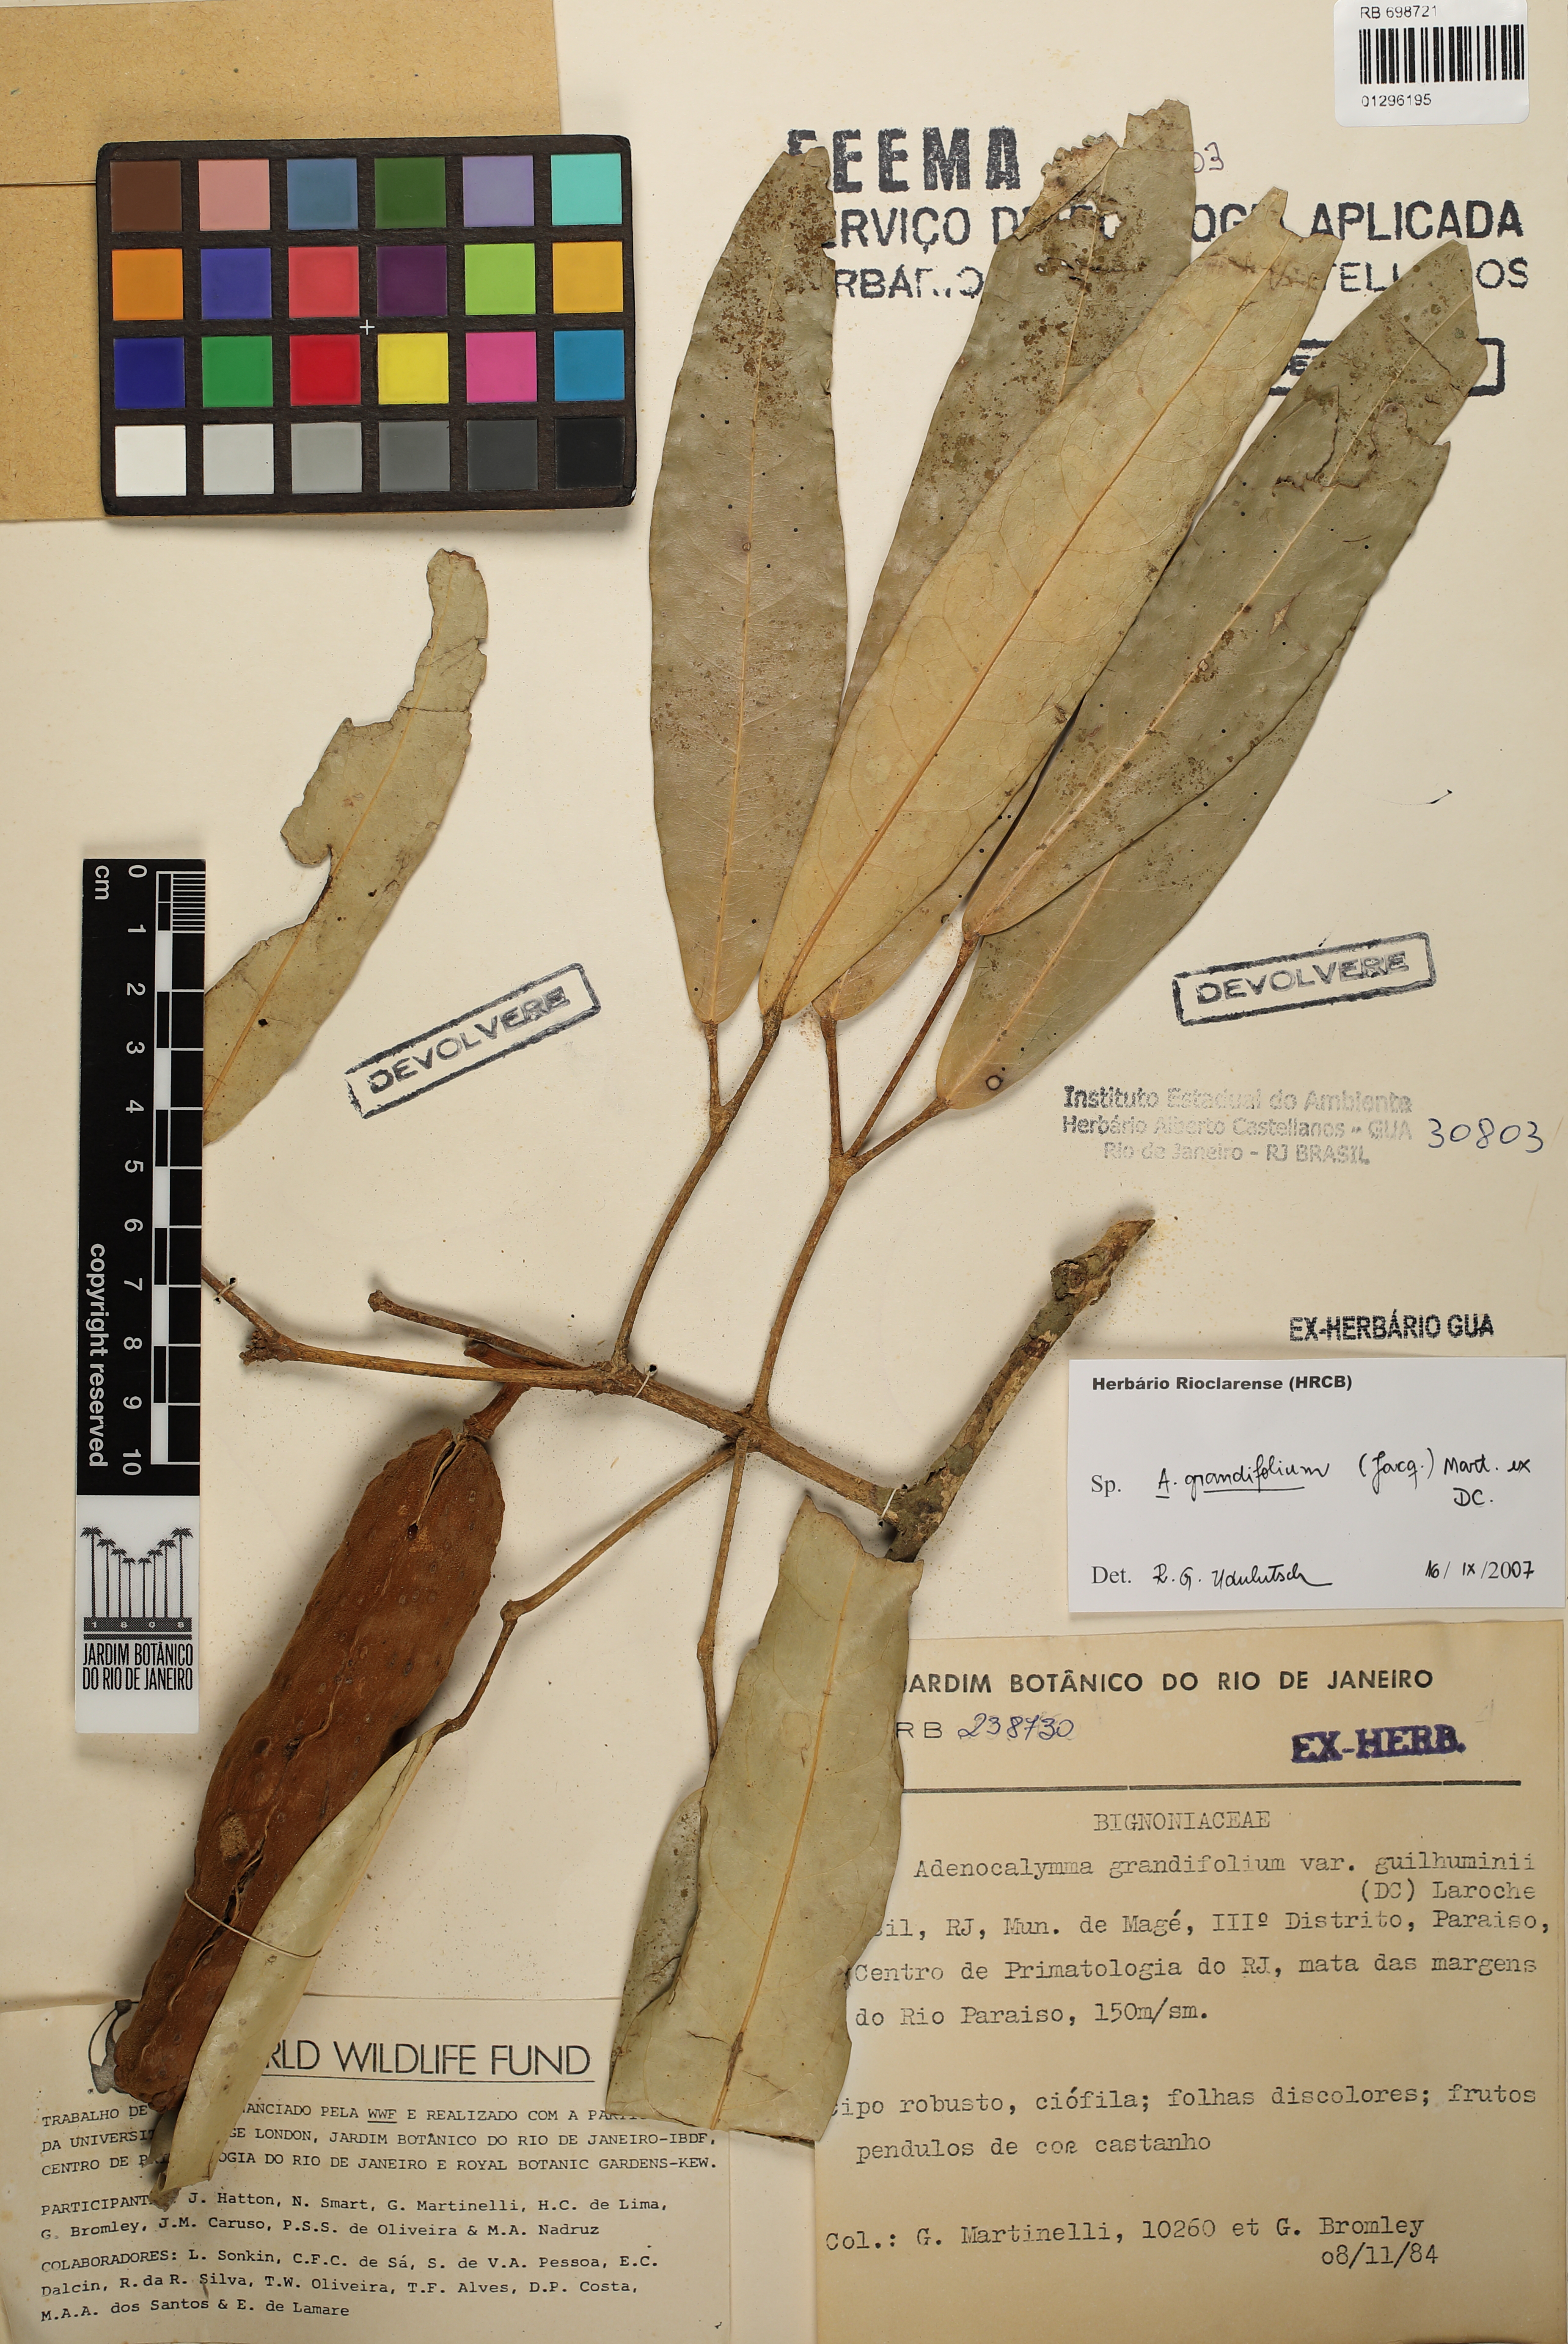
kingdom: Plantae
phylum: Tracheophyta
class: Magnoliopsida
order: Lamiales
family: Bignoniaceae
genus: Adenocalymma
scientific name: Adenocalymma ternatum
